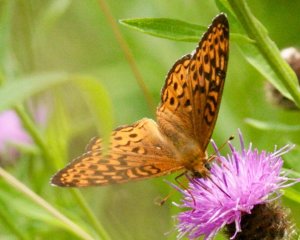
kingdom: Animalia
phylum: Arthropoda
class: Insecta
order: Lepidoptera
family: Nymphalidae
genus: Speyeria
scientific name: Speyeria atlantis
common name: Atlantis Fritillary
